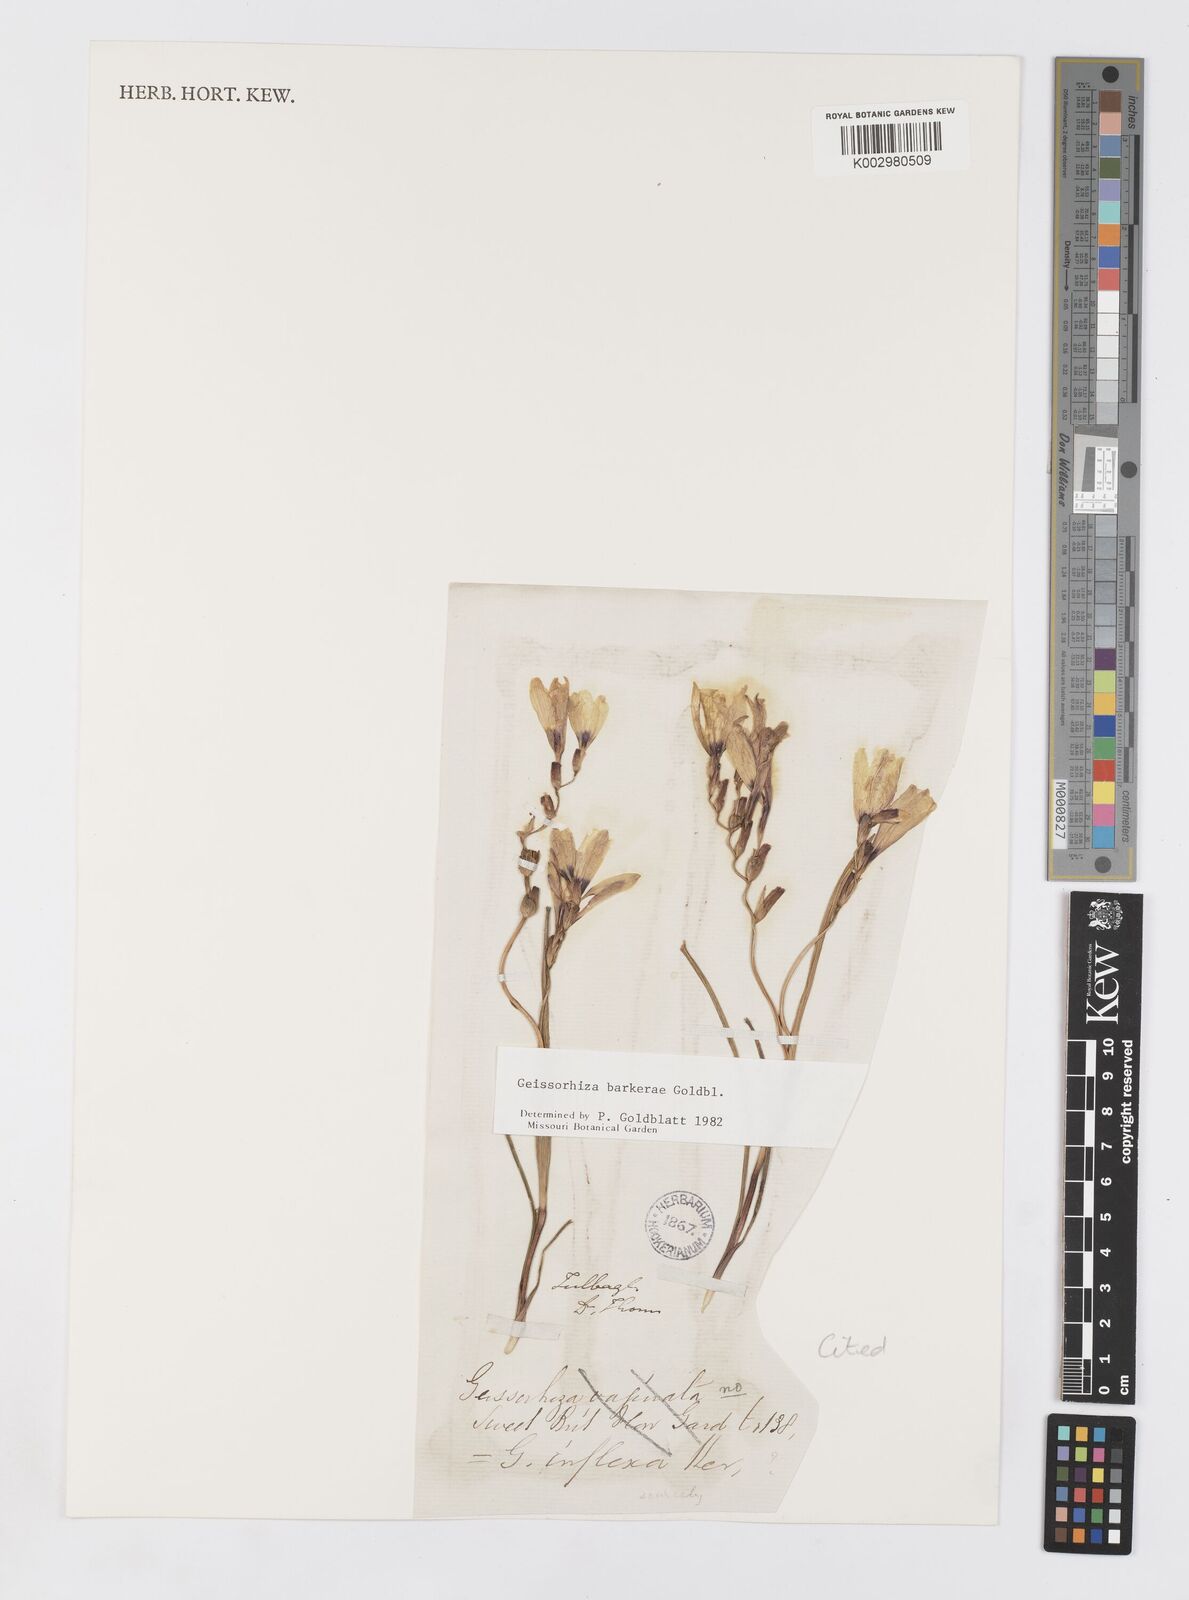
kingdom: Plantae
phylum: Tracheophyta
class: Liliopsida
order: Asparagales
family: Iridaceae
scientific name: Iridaceae
